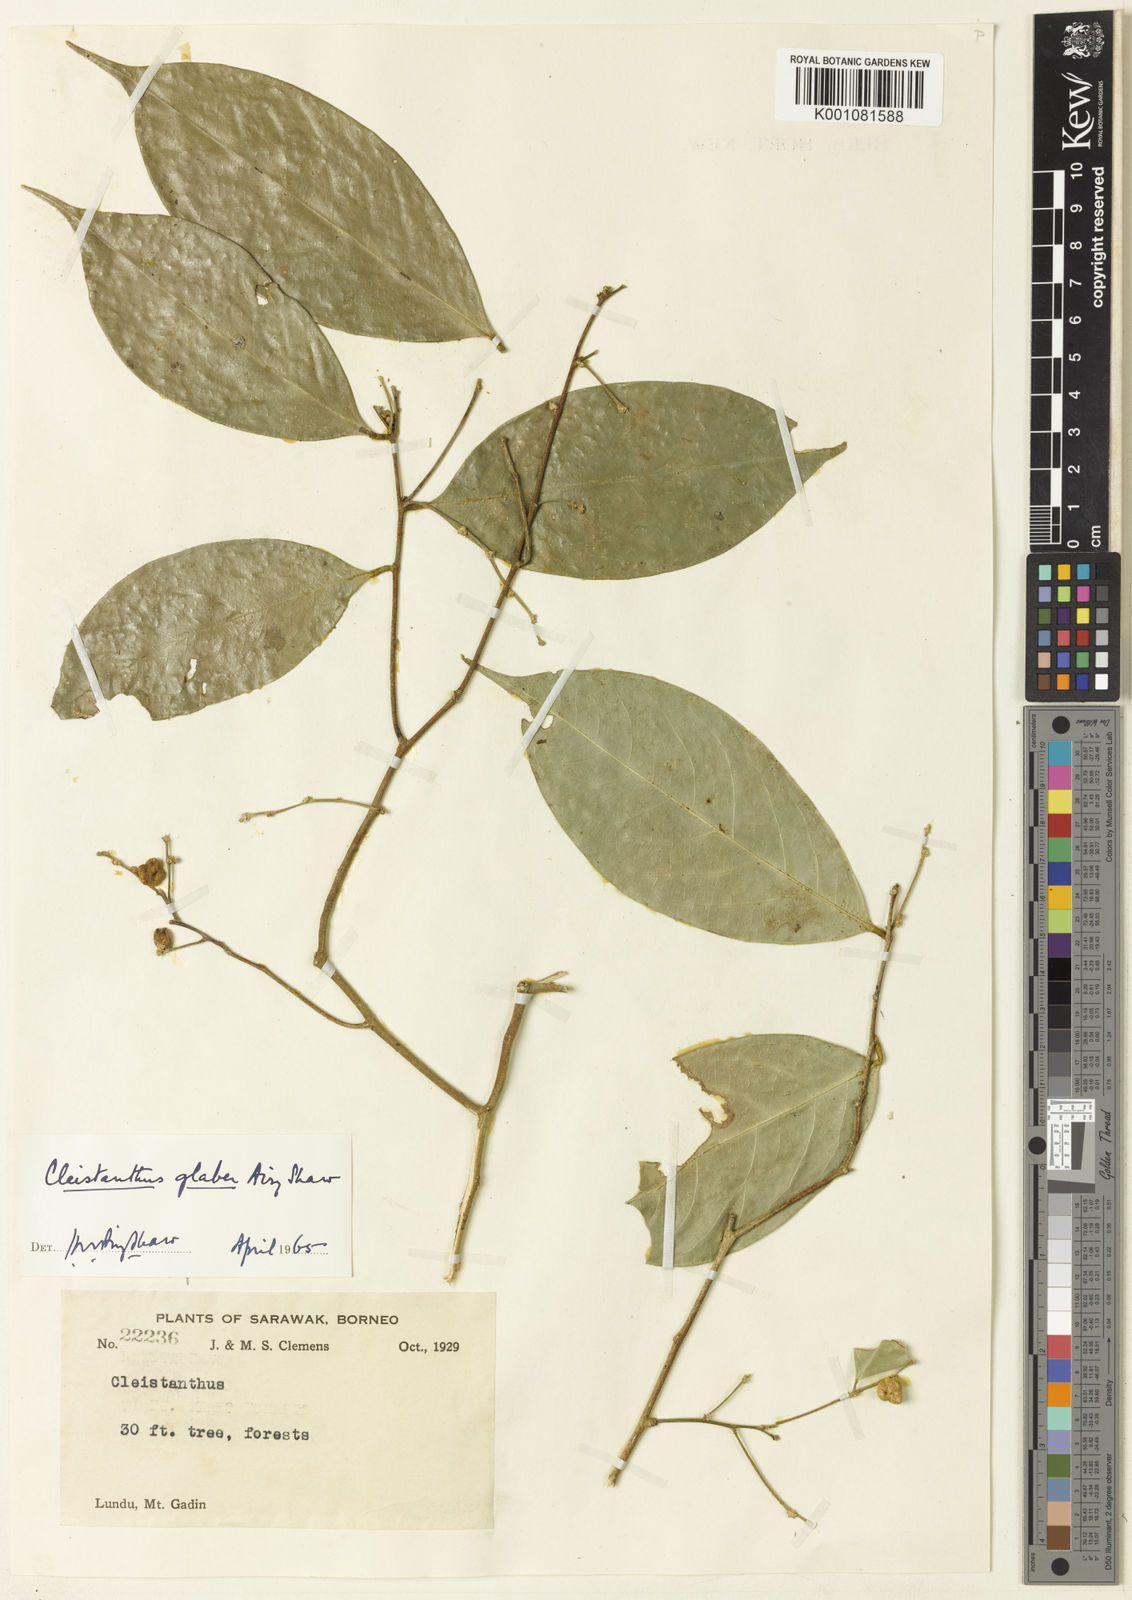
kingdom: Plantae
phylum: Tracheophyta
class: Magnoliopsida
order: Malpighiales
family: Phyllanthaceae
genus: Cleistanthus
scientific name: Cleistanthus glaber
